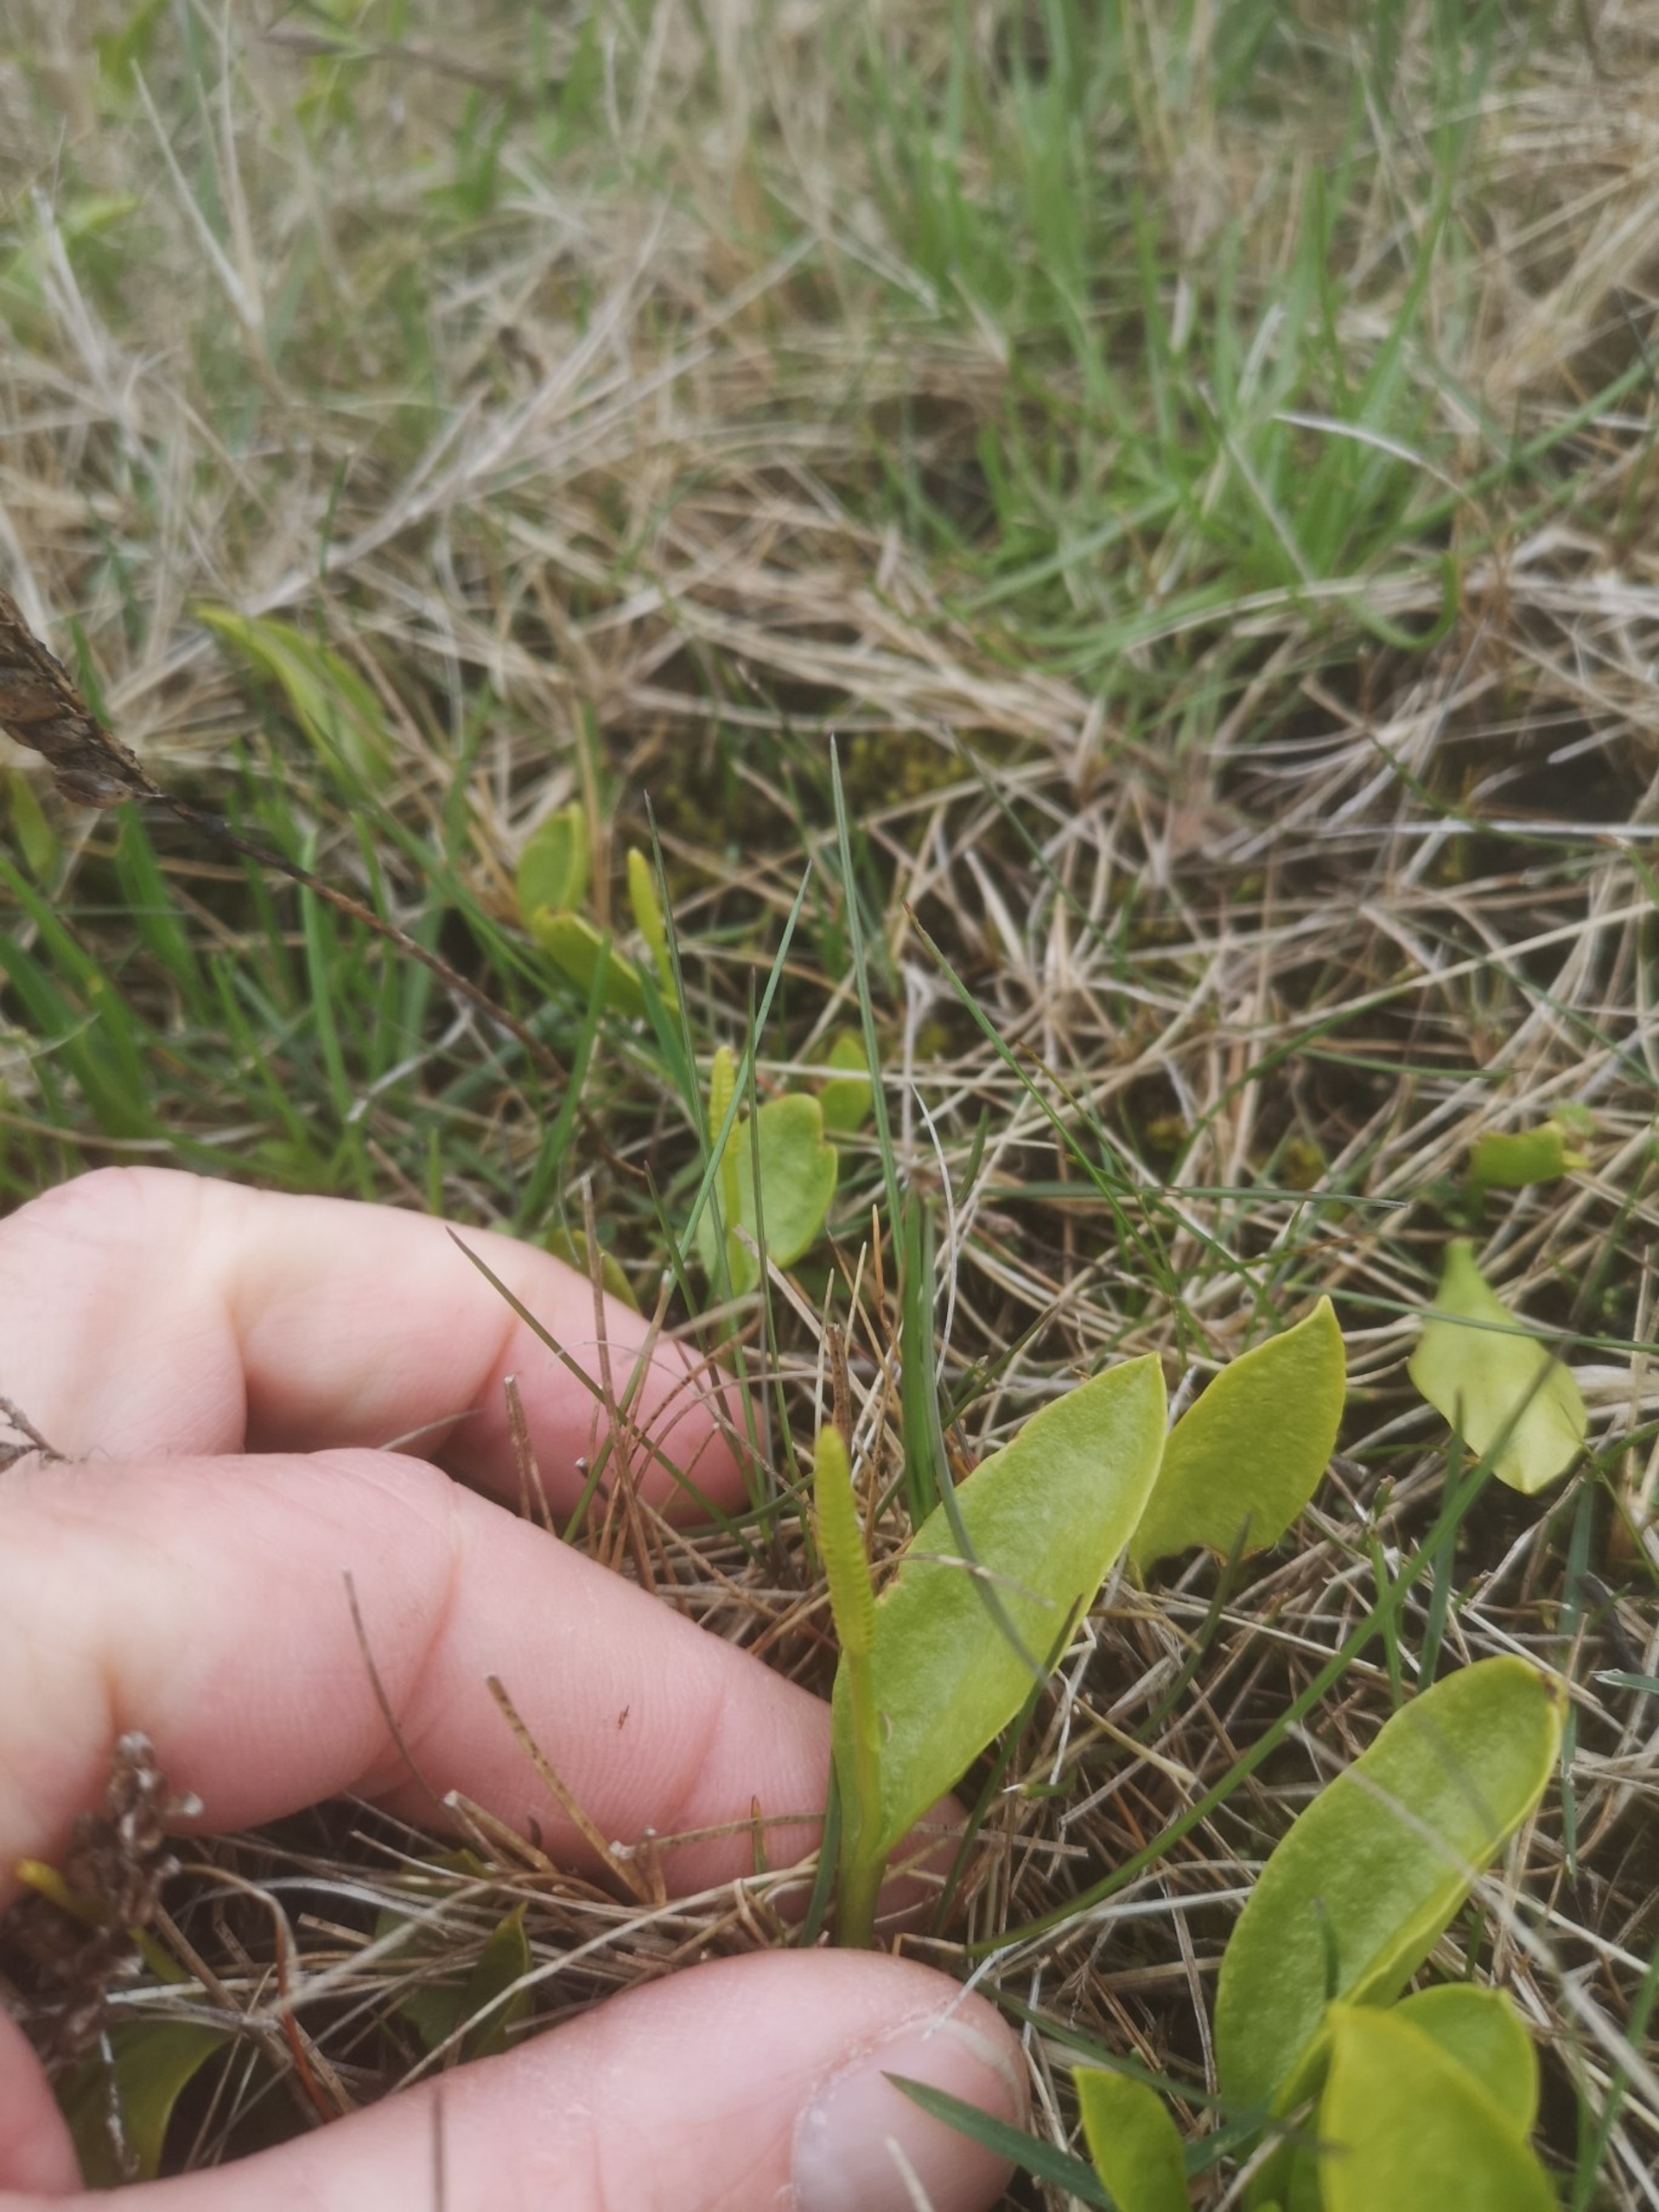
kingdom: Plantae
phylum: Tracheophyta
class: Polypodiopsida
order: Ophioglossales
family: Ophioglossaceae
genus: Ophioglossum
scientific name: Ophioglossum vulgatum
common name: Slangetunge
